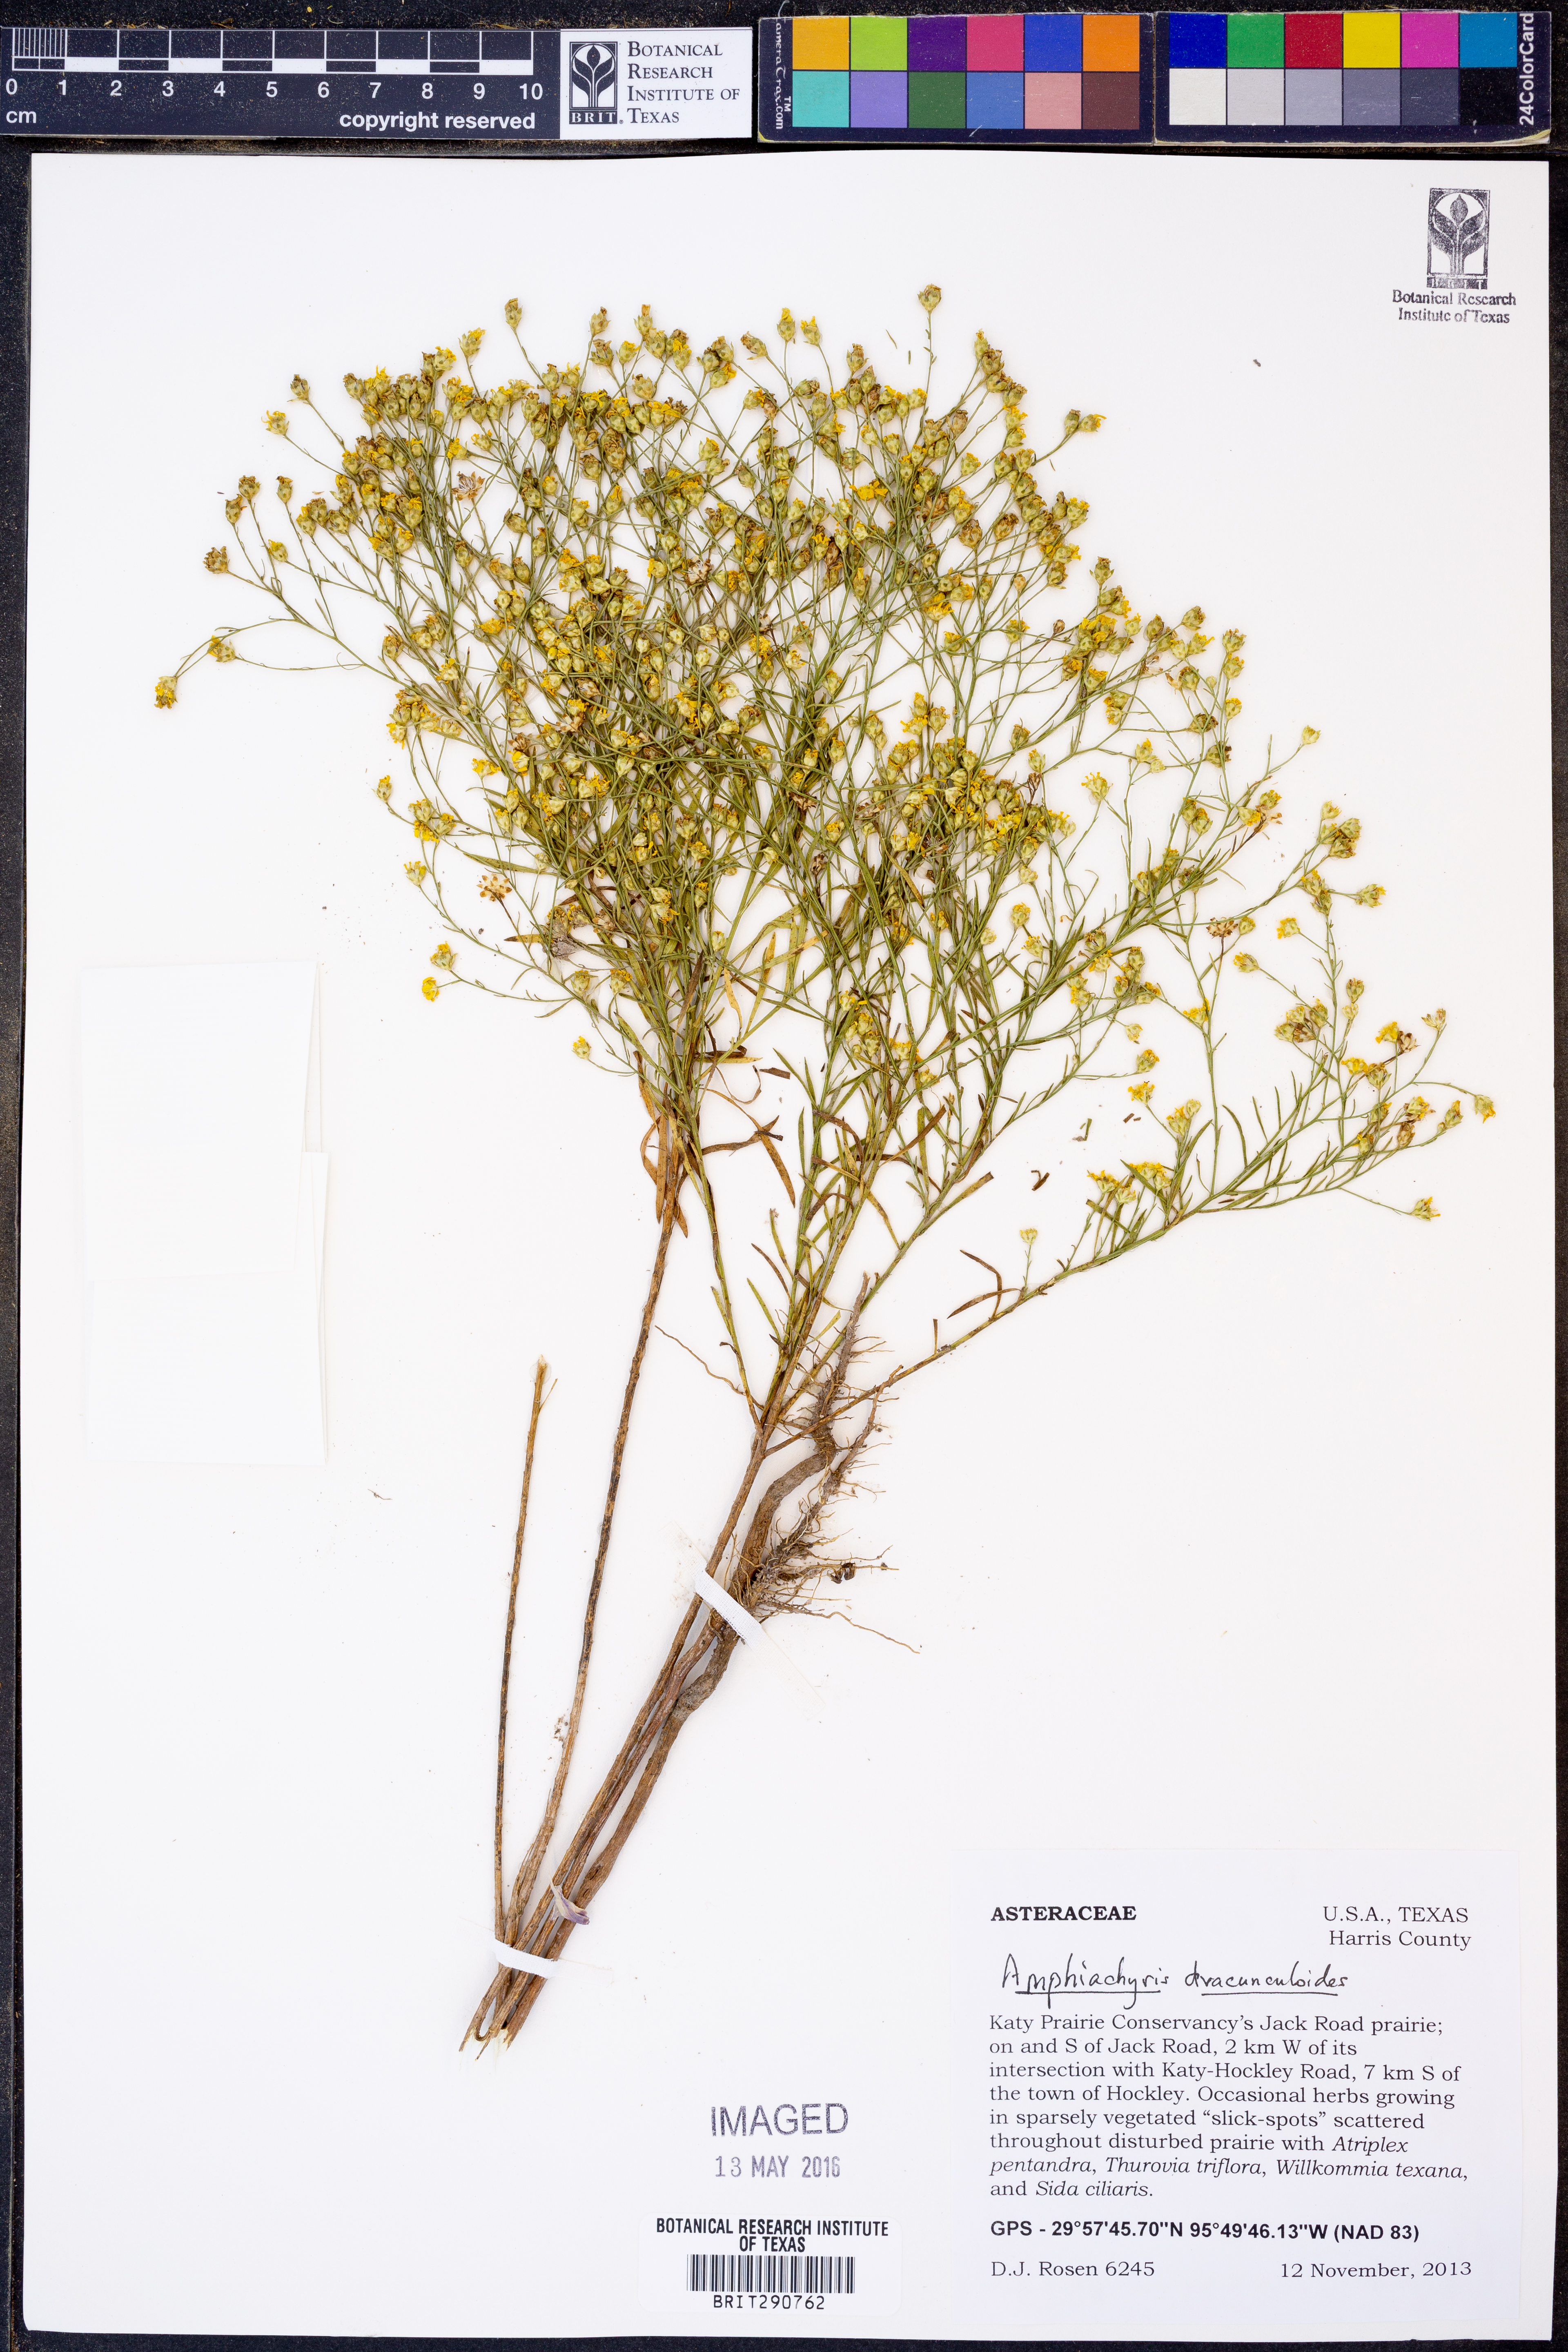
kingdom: Plantae
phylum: Tracheophyta
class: Magnoliopsida
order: Asterales
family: Asteraceae
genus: Amphiachyris
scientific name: Amphiachyris dracunculoides
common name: Broomweed
